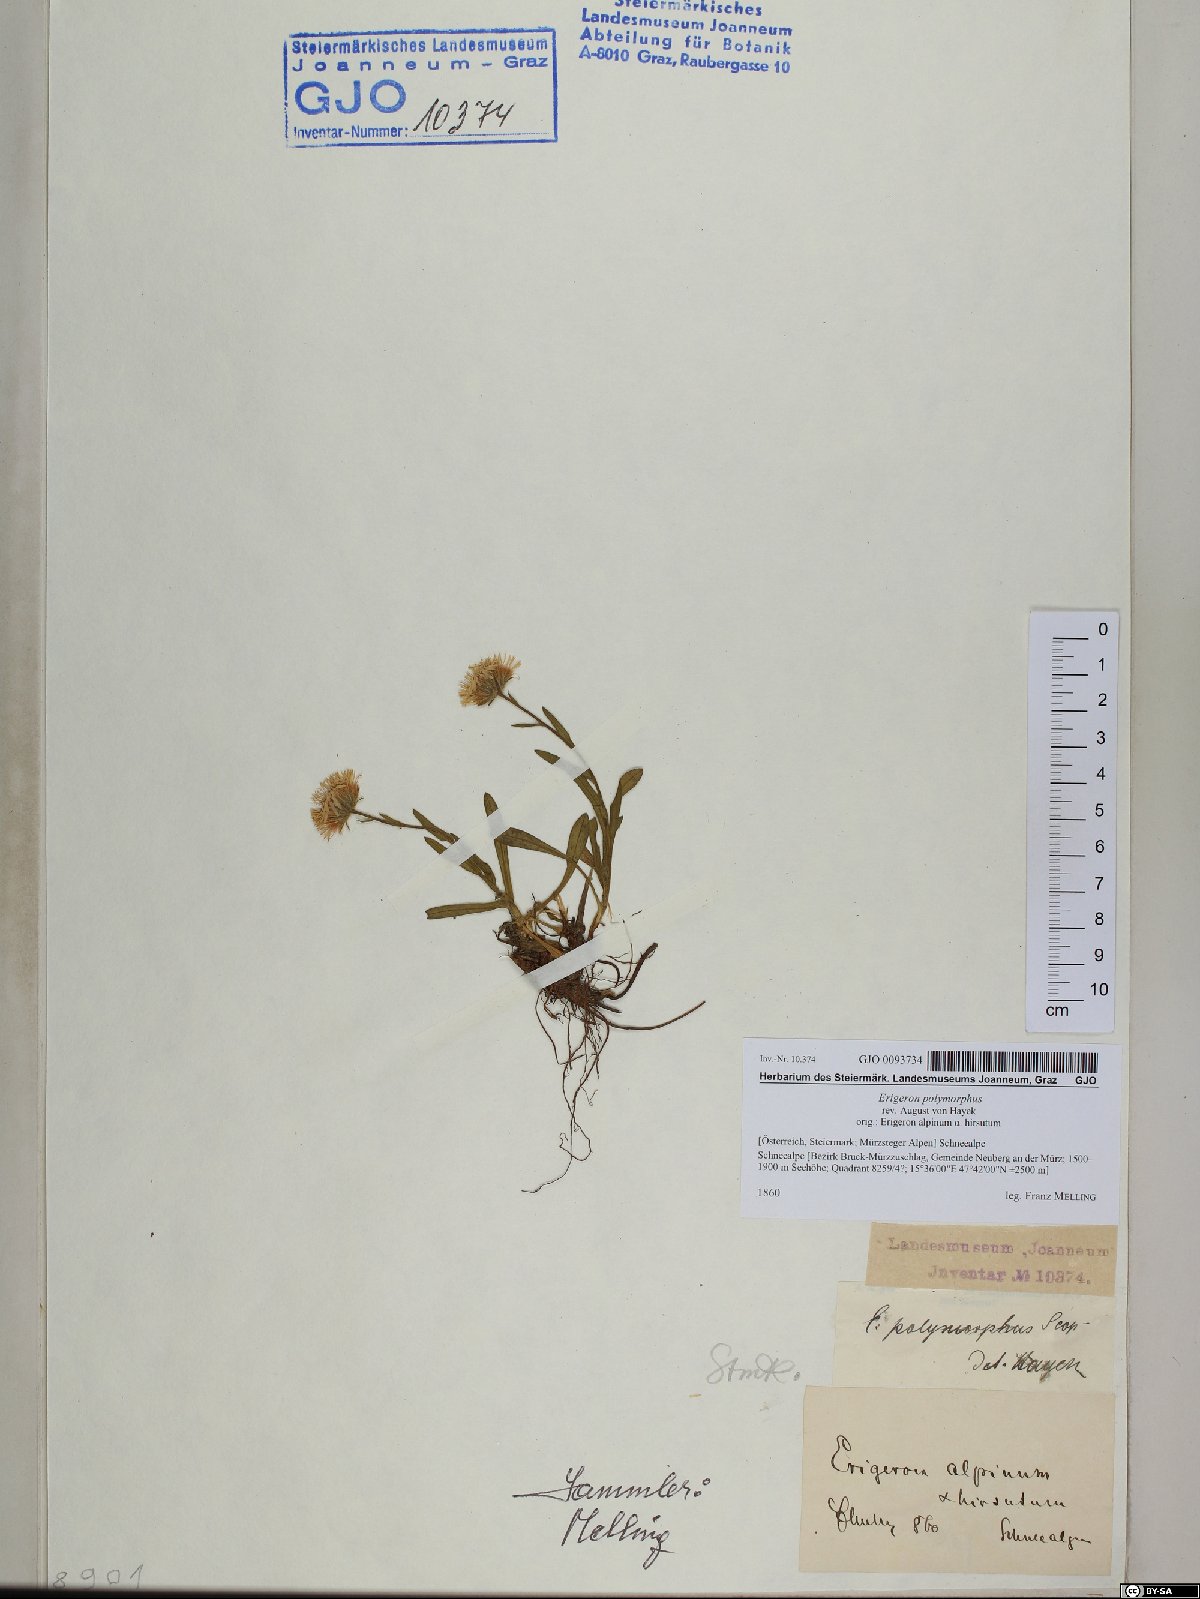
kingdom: Plantae
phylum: Tracheophyta
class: Magnoliopsida
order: Asterales
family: Asteraceae
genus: Erigeron
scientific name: Erigeron alpinus
